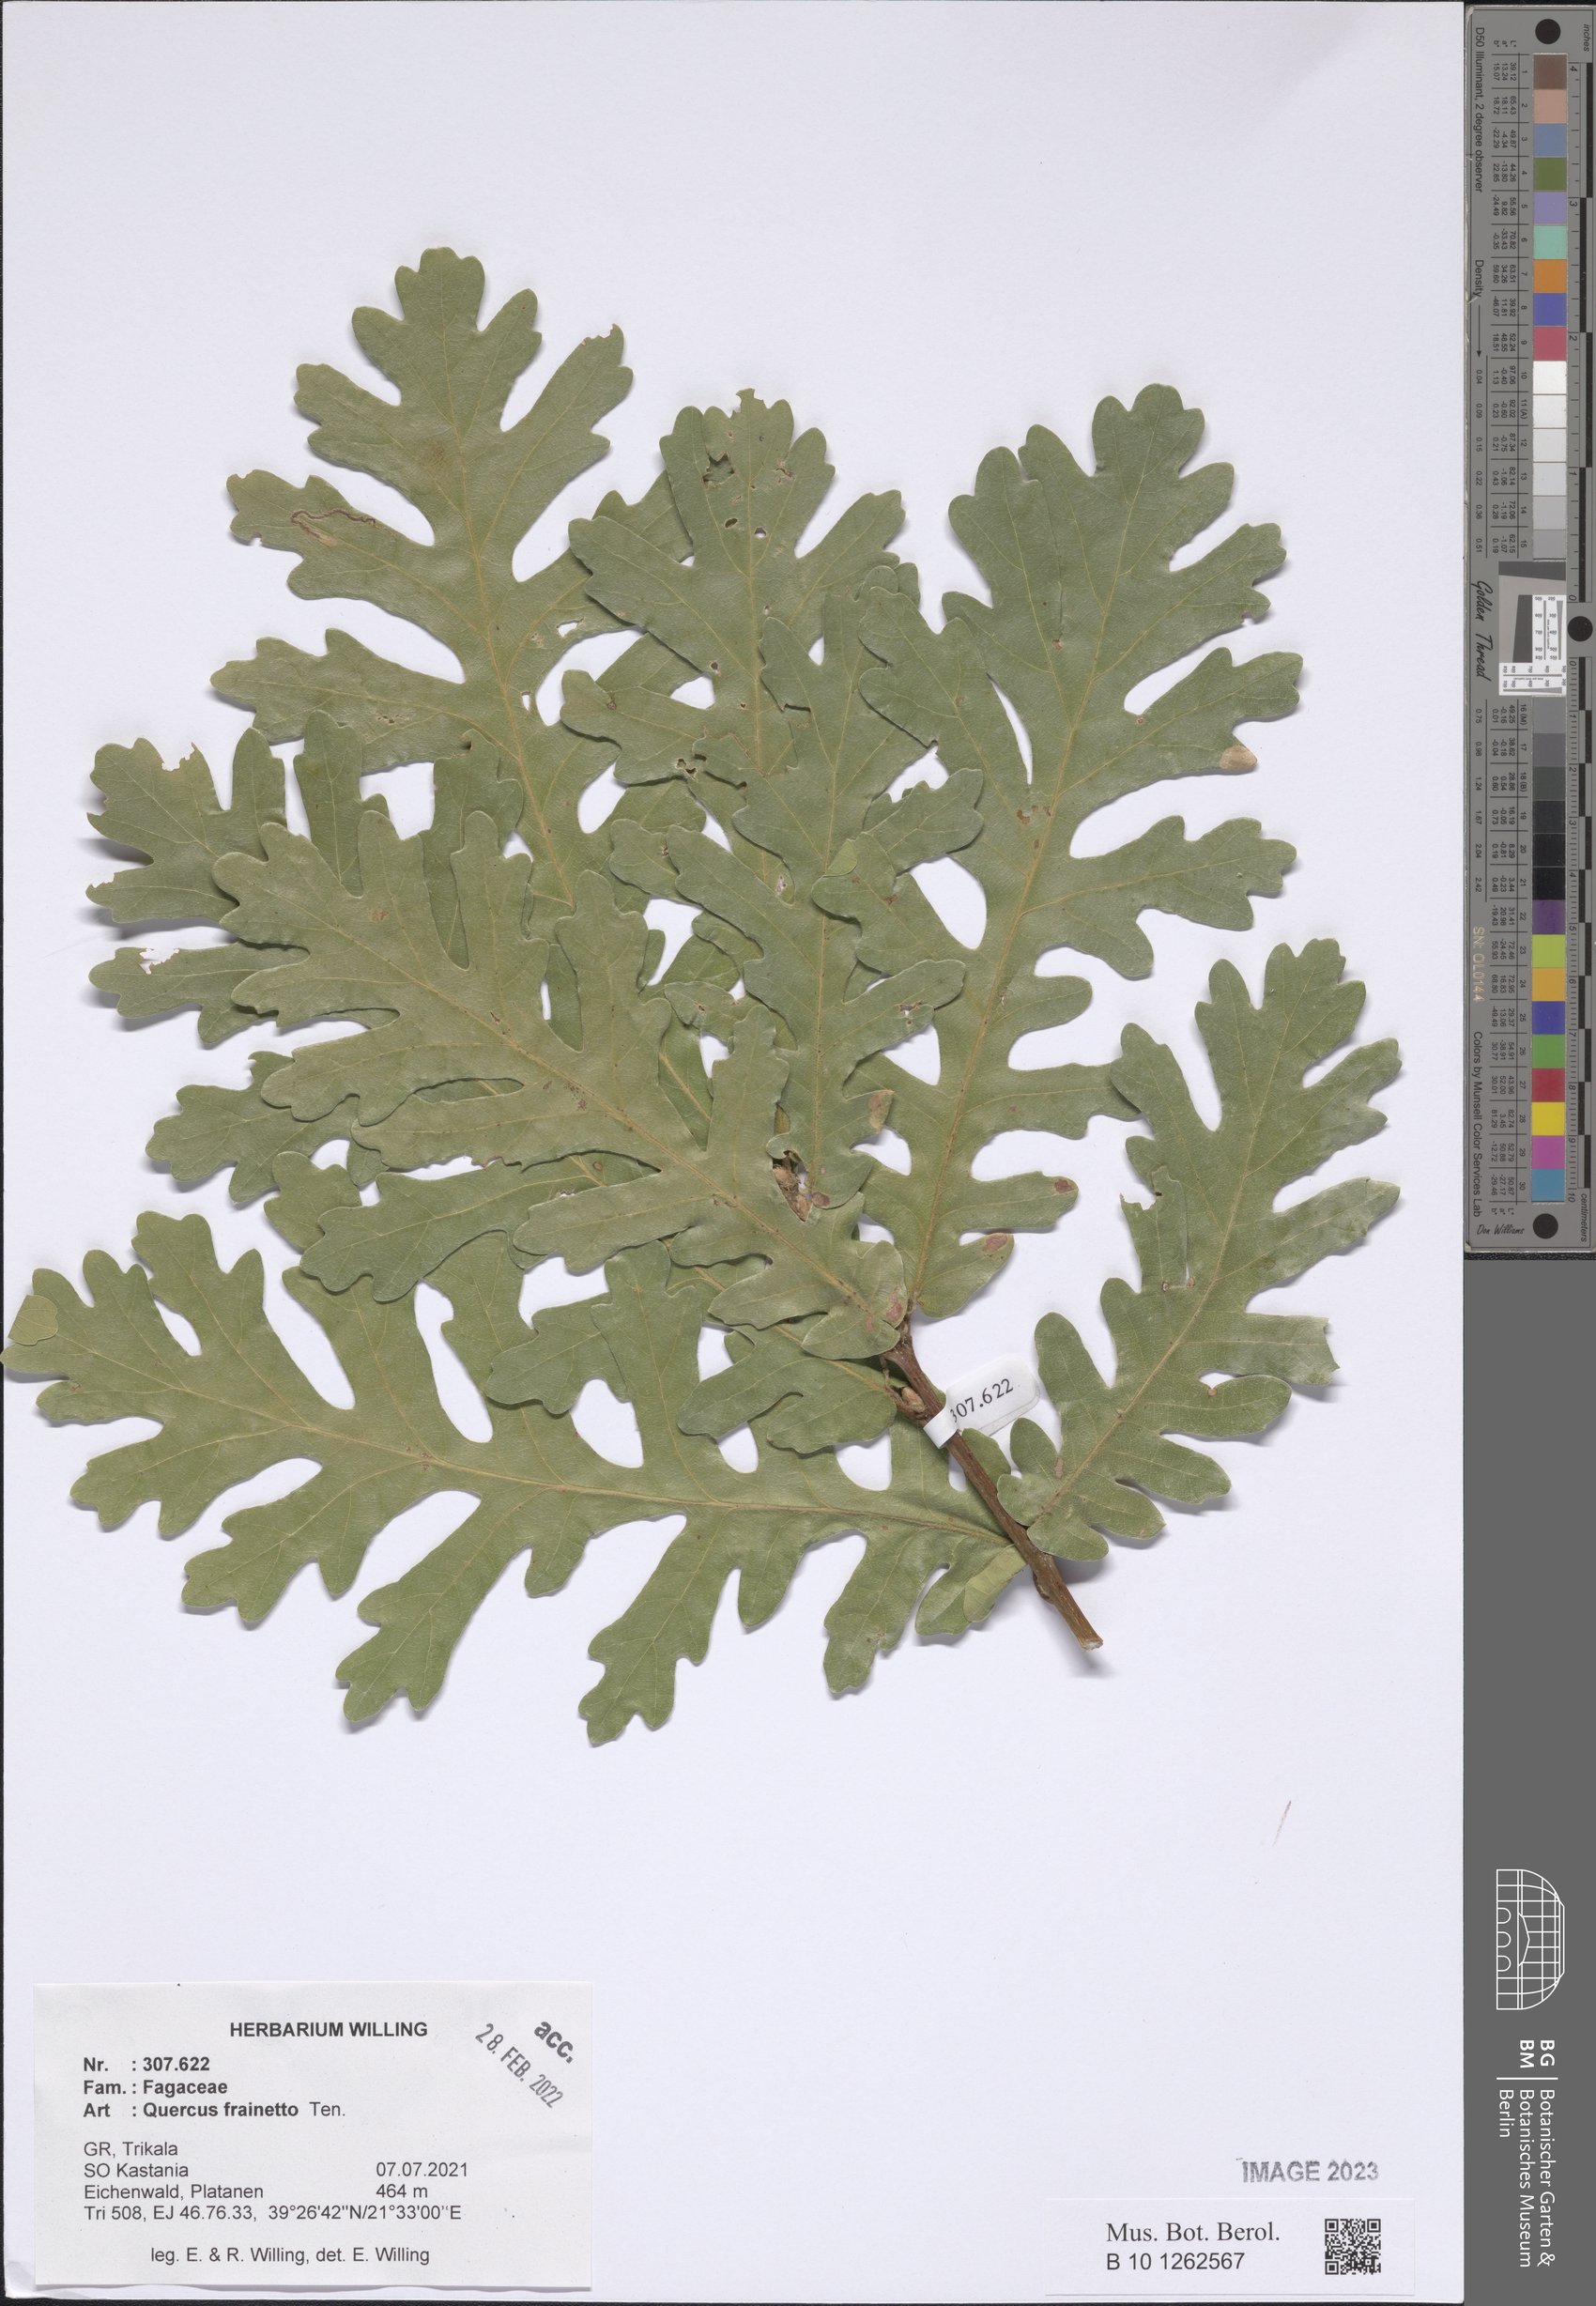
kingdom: Plantae
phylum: Tracheophyta
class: Magnoliopsida
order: Fagales
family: Fagaceae
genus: Quercus
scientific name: Quercus conferta
